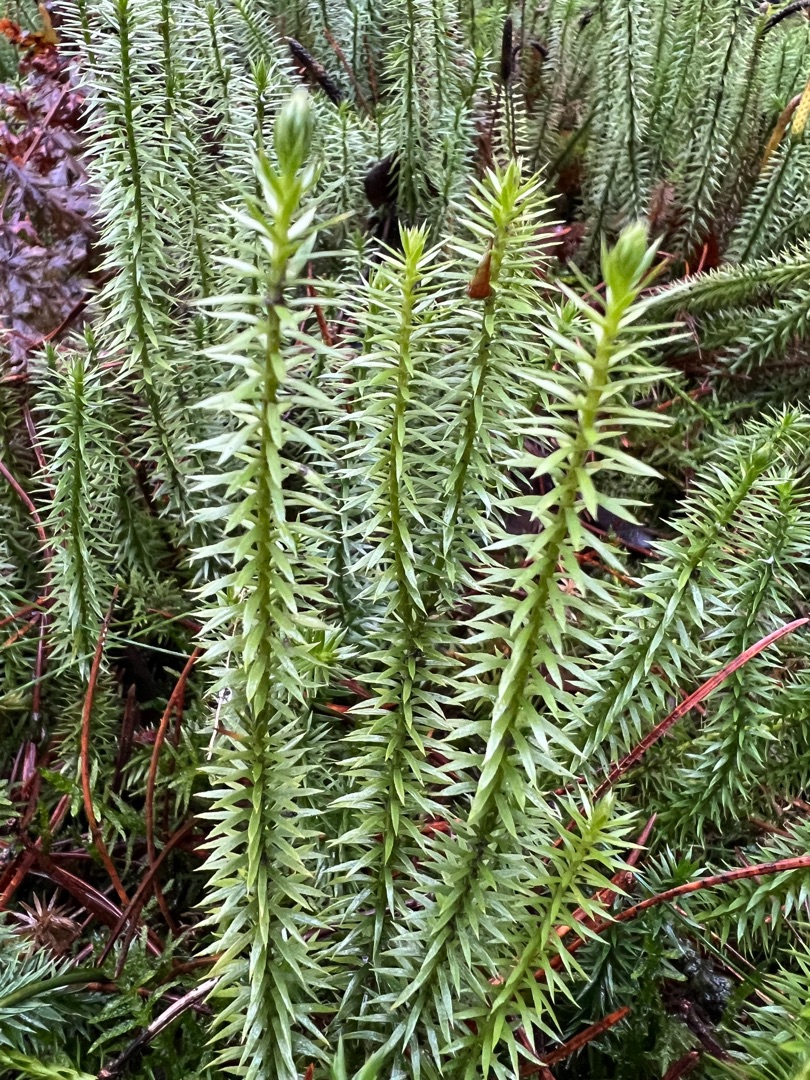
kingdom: Plantae
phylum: Tracheophyta
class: Lycopodiopsida
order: Lycopodiales
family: Lycopodiaceae
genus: Spinulum
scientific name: Spinulum annotinum
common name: Femradet ulvefod
